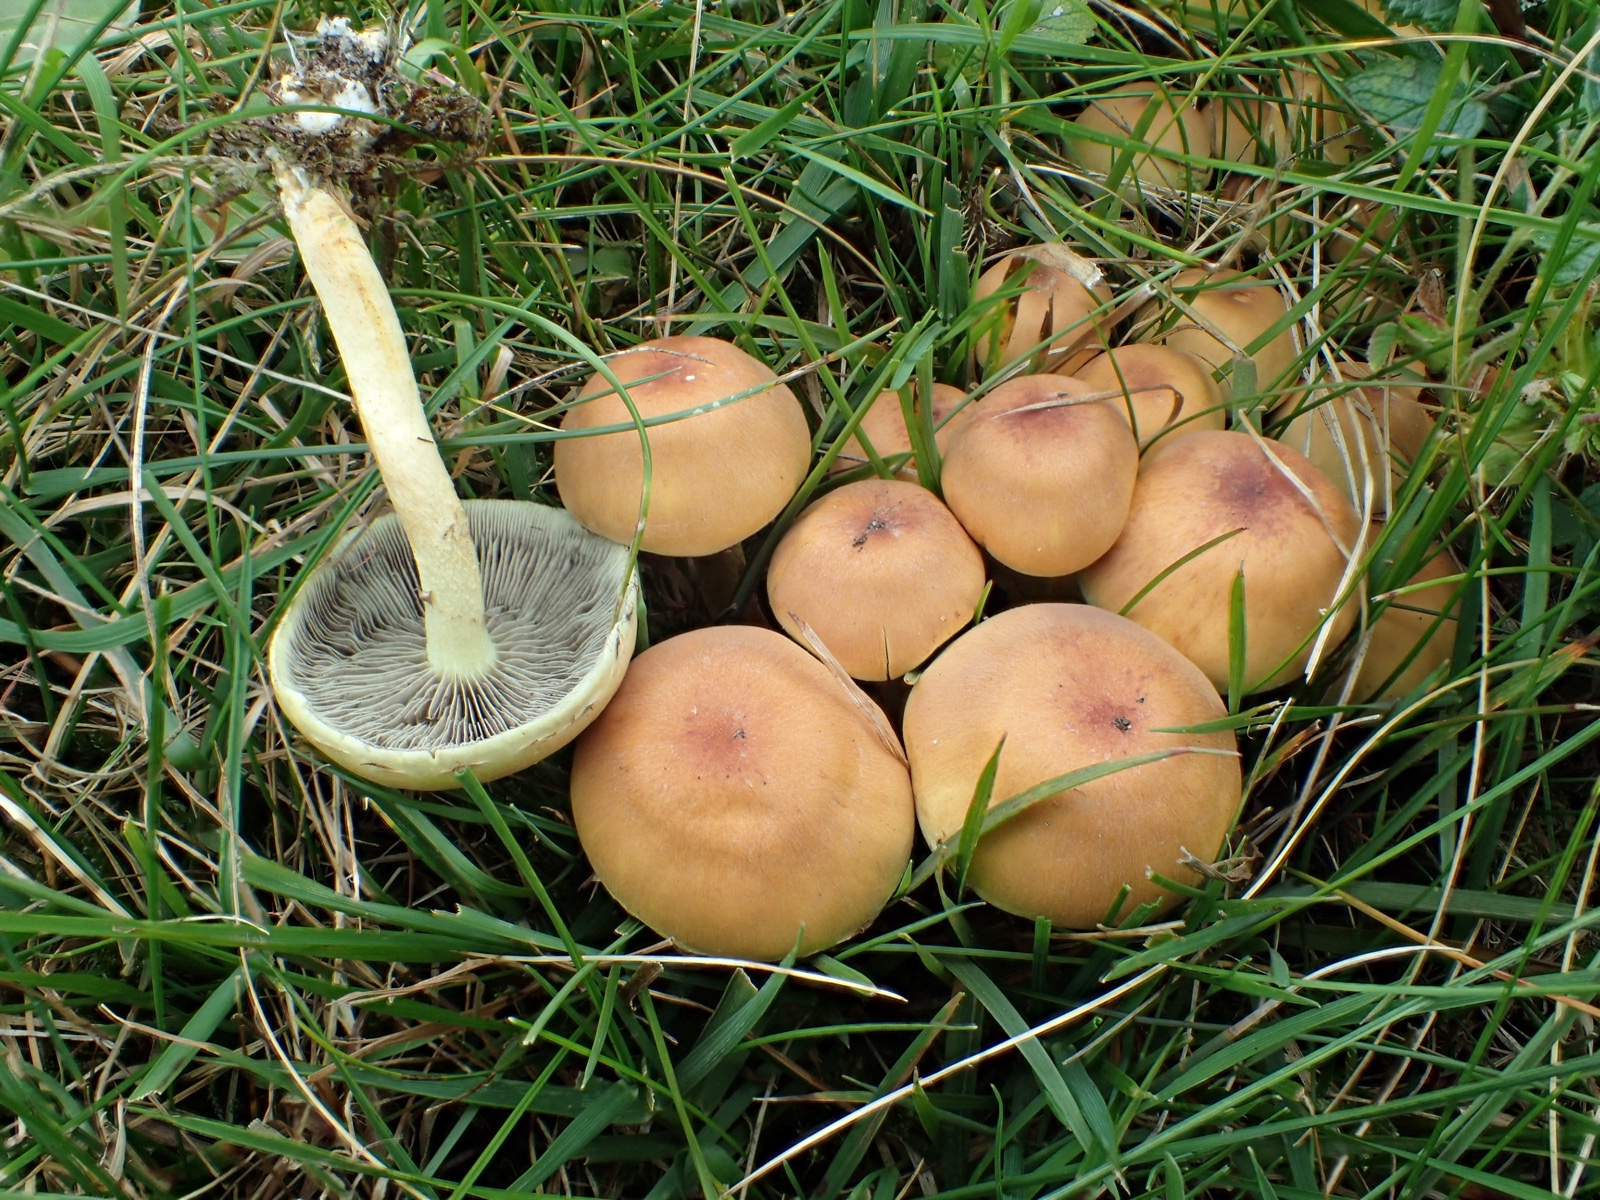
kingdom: Fungi
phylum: Basidiomycota
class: Agaricomycetes
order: Agaricales
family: Strophariaceae
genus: Hypholoma
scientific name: Hypholoma fasciculare
